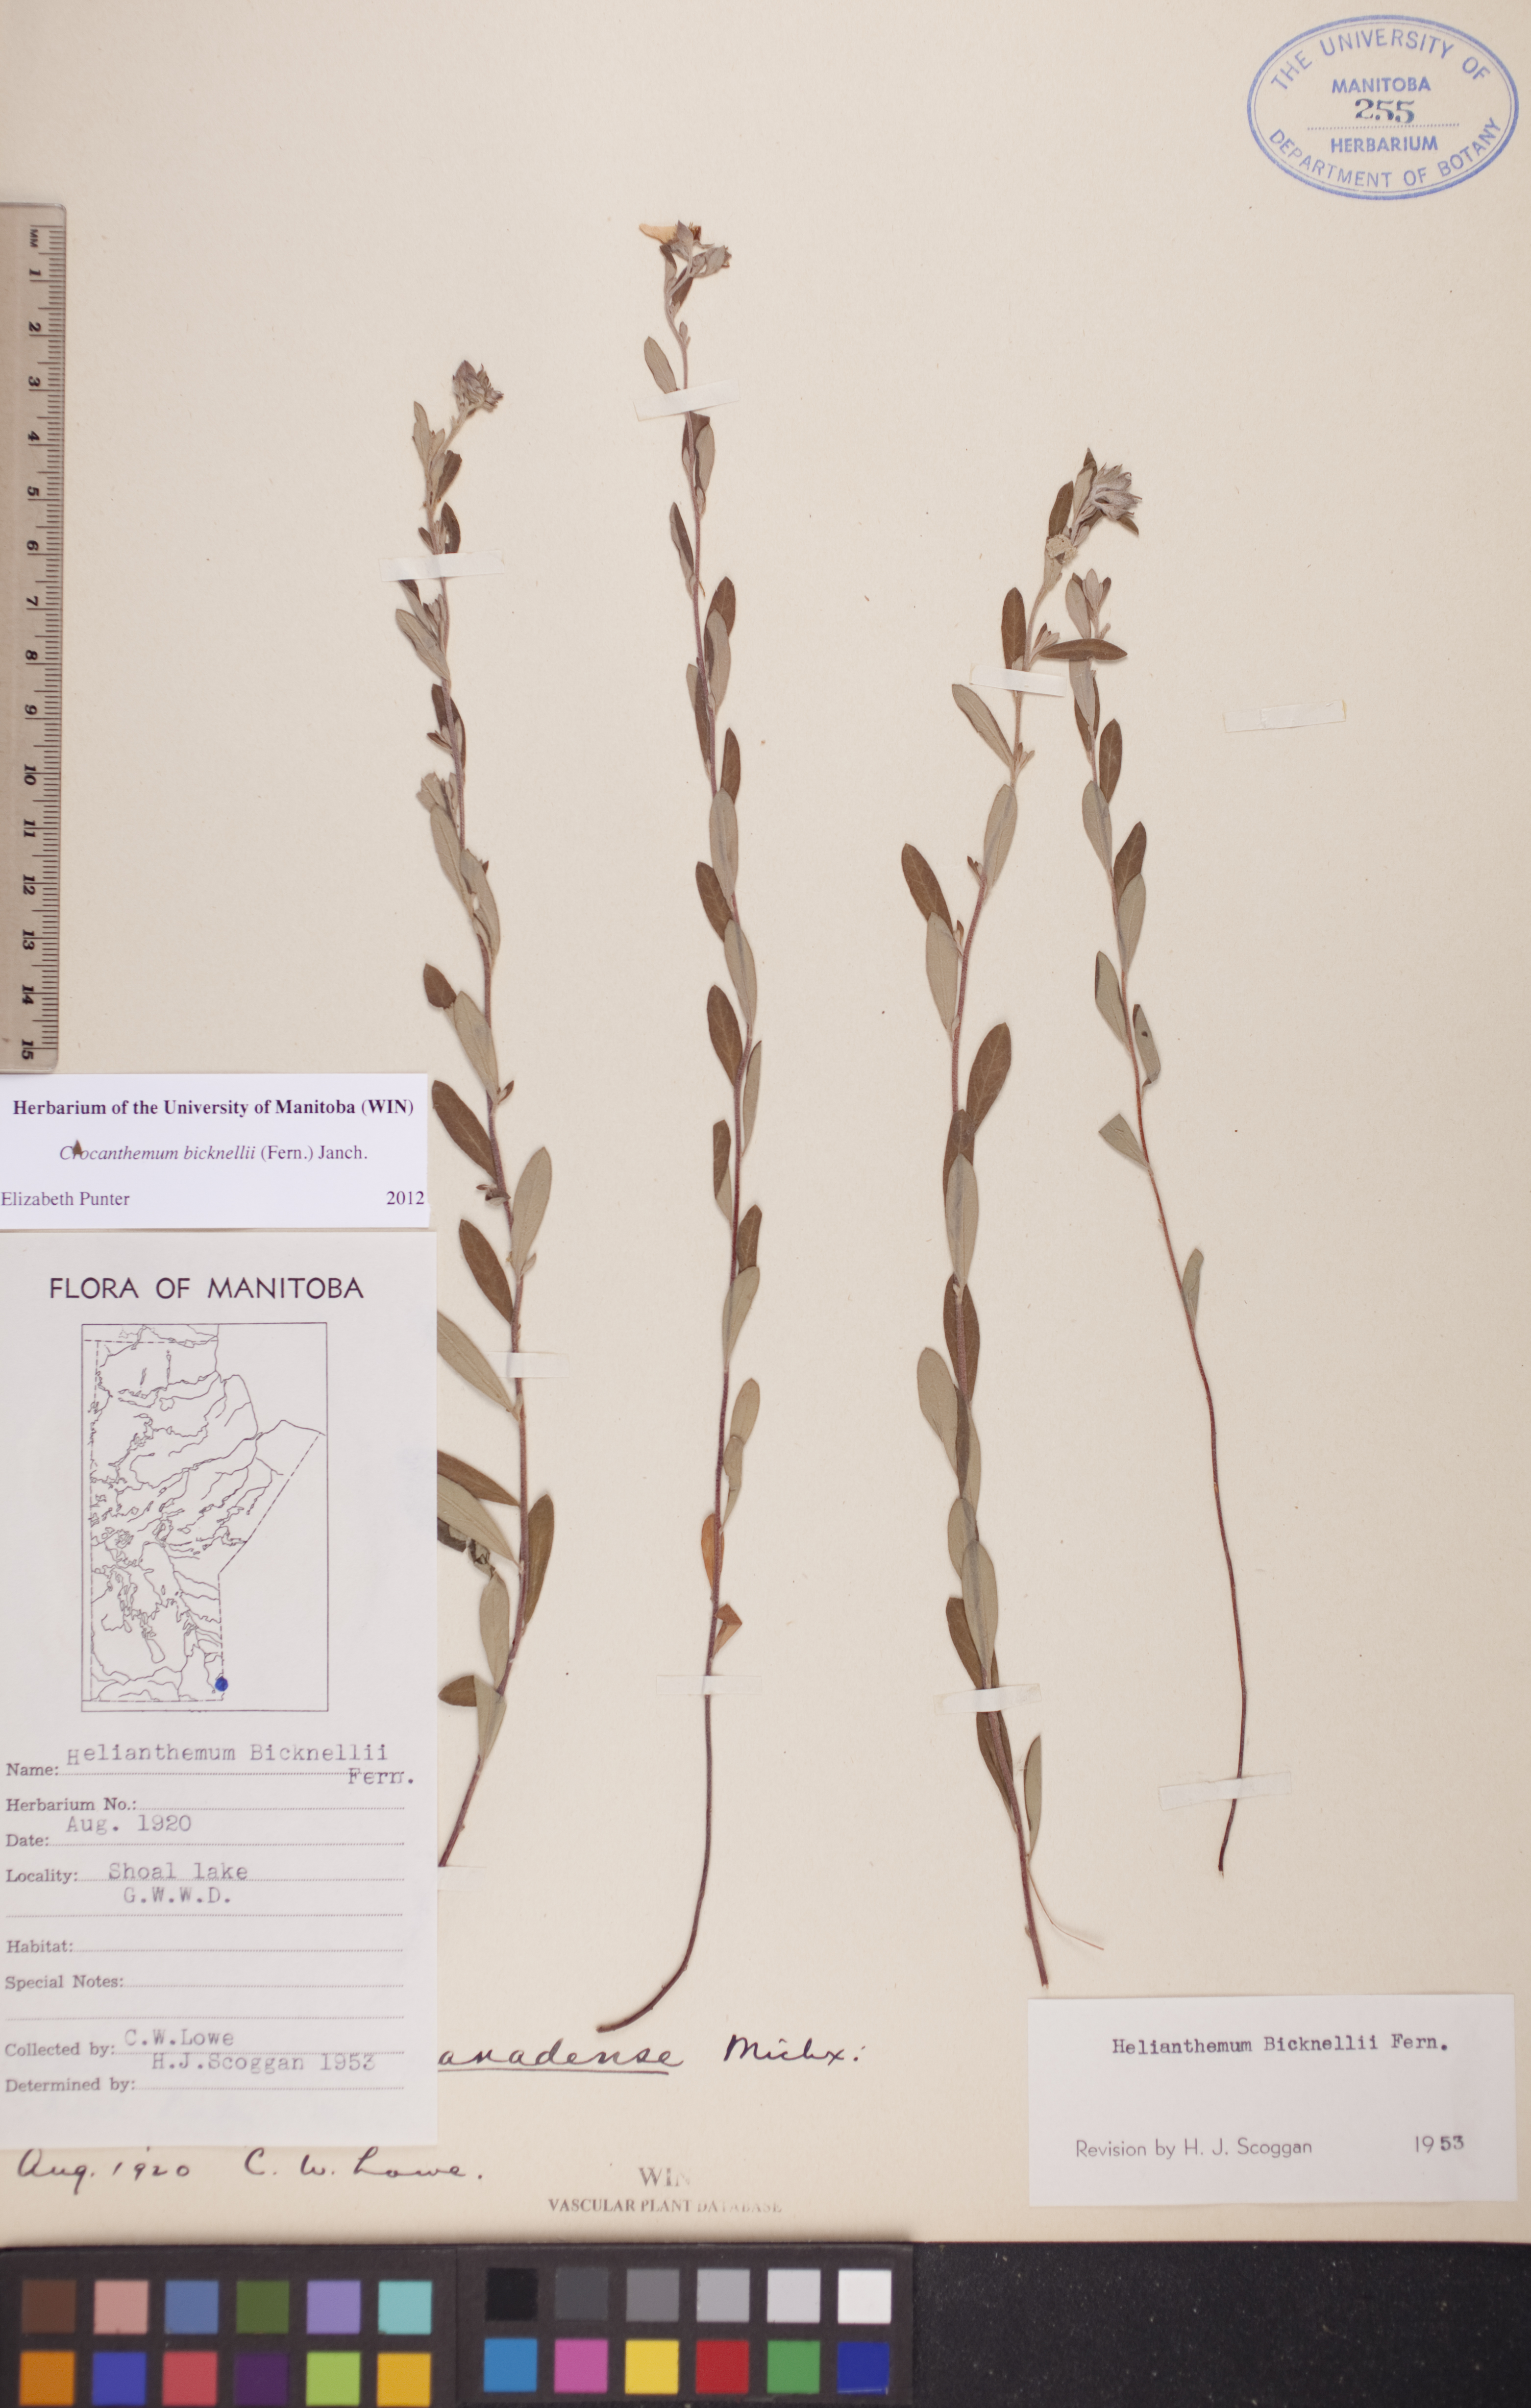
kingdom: Plantae
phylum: Tracheophyta
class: Magnoliopsida
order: Malvales
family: Cistaceae
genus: Crocanthemum
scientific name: Crocanthemum bicknellii
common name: Hoary frostweed
